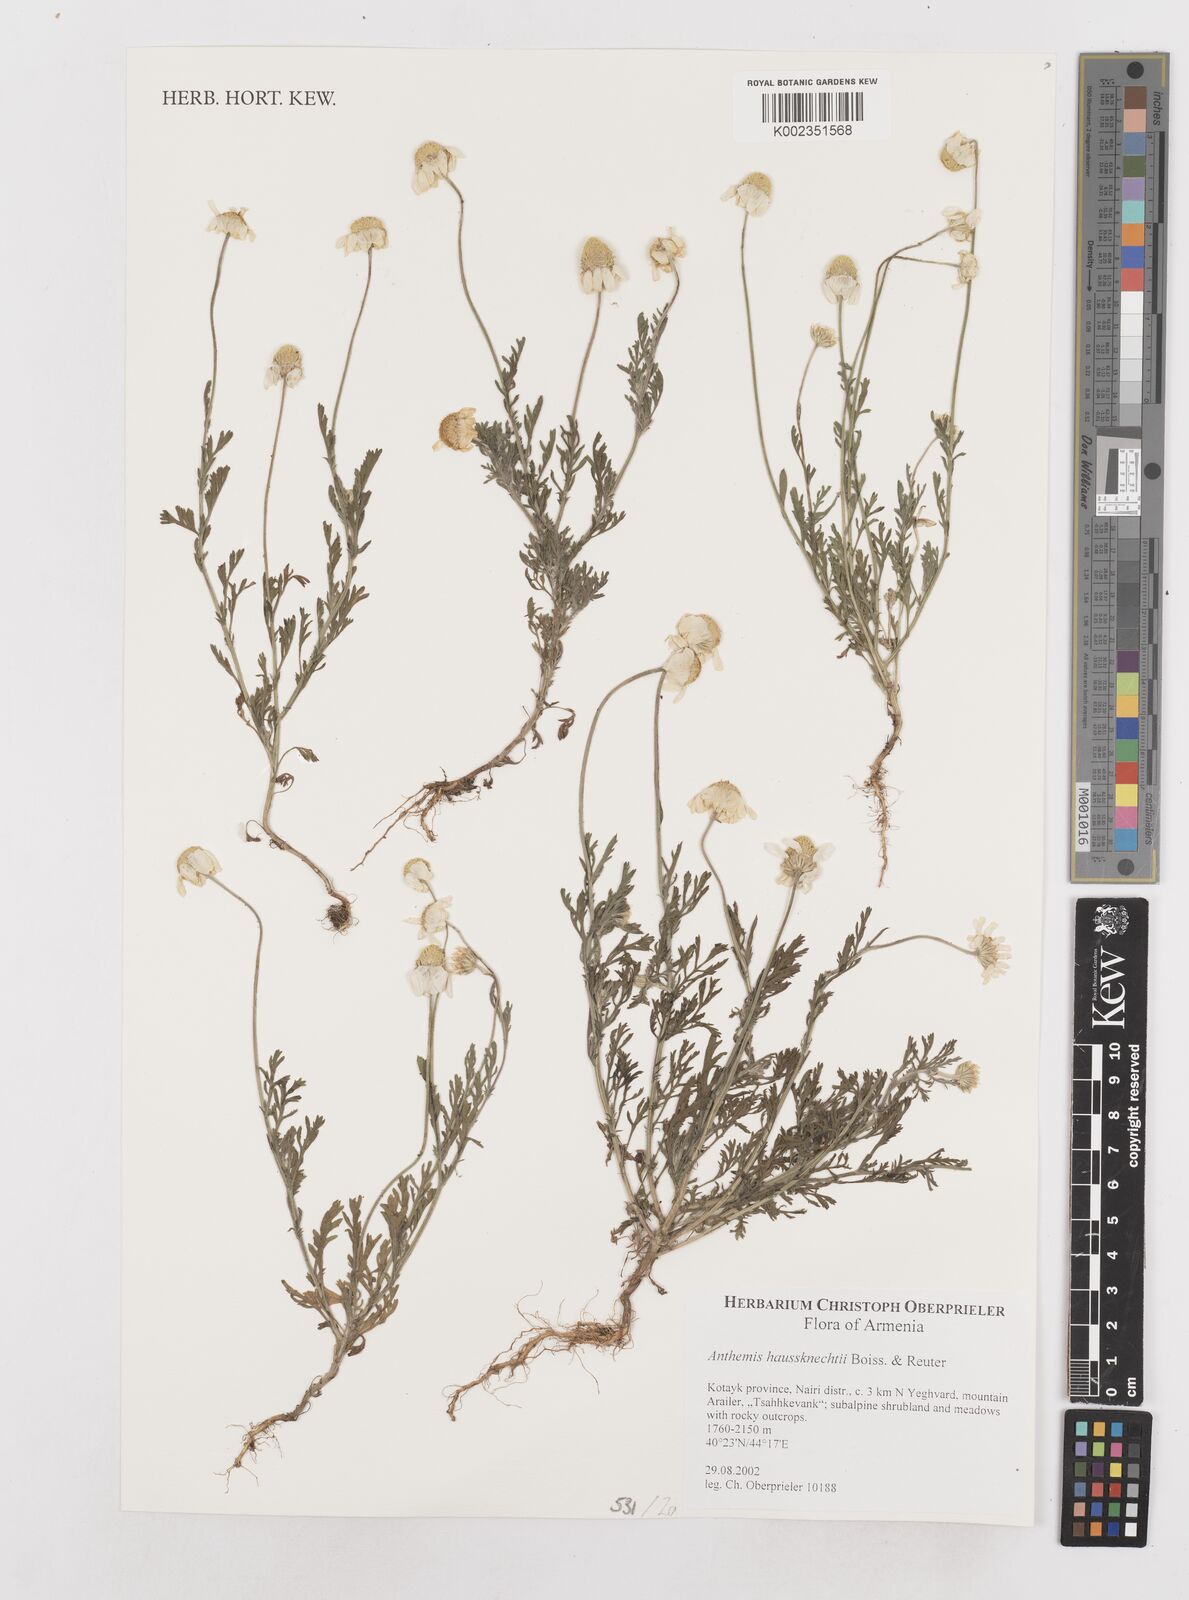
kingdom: Plantae
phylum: Tracheophyta
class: Magnoliopsida
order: Asterales
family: Asteraceae
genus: Anthemis
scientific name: Anthemis haussknechtii
